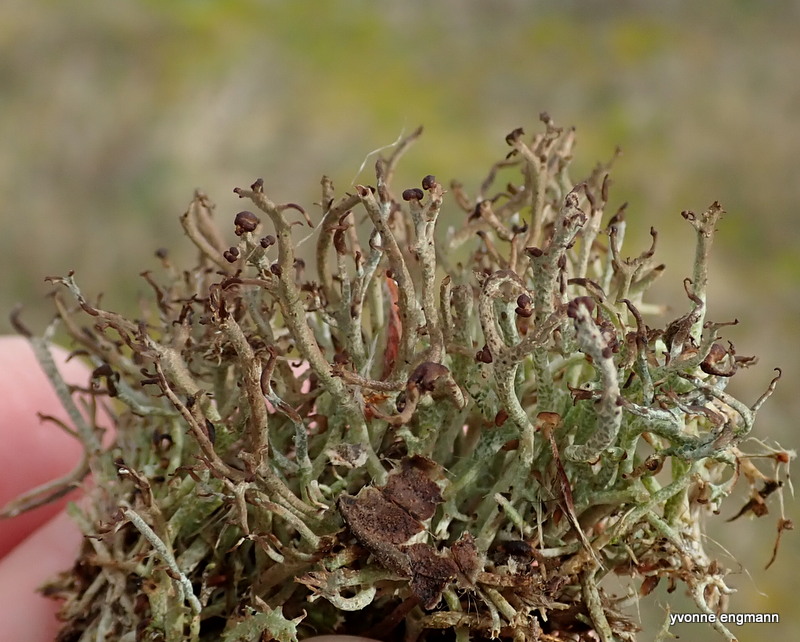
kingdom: Fungi
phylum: Ascomycota
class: Lecanoromycetes
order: Lecanorales
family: Cladoniaceae
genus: Cladonia
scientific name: Cladonia furcata
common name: kløftet bægerlav
